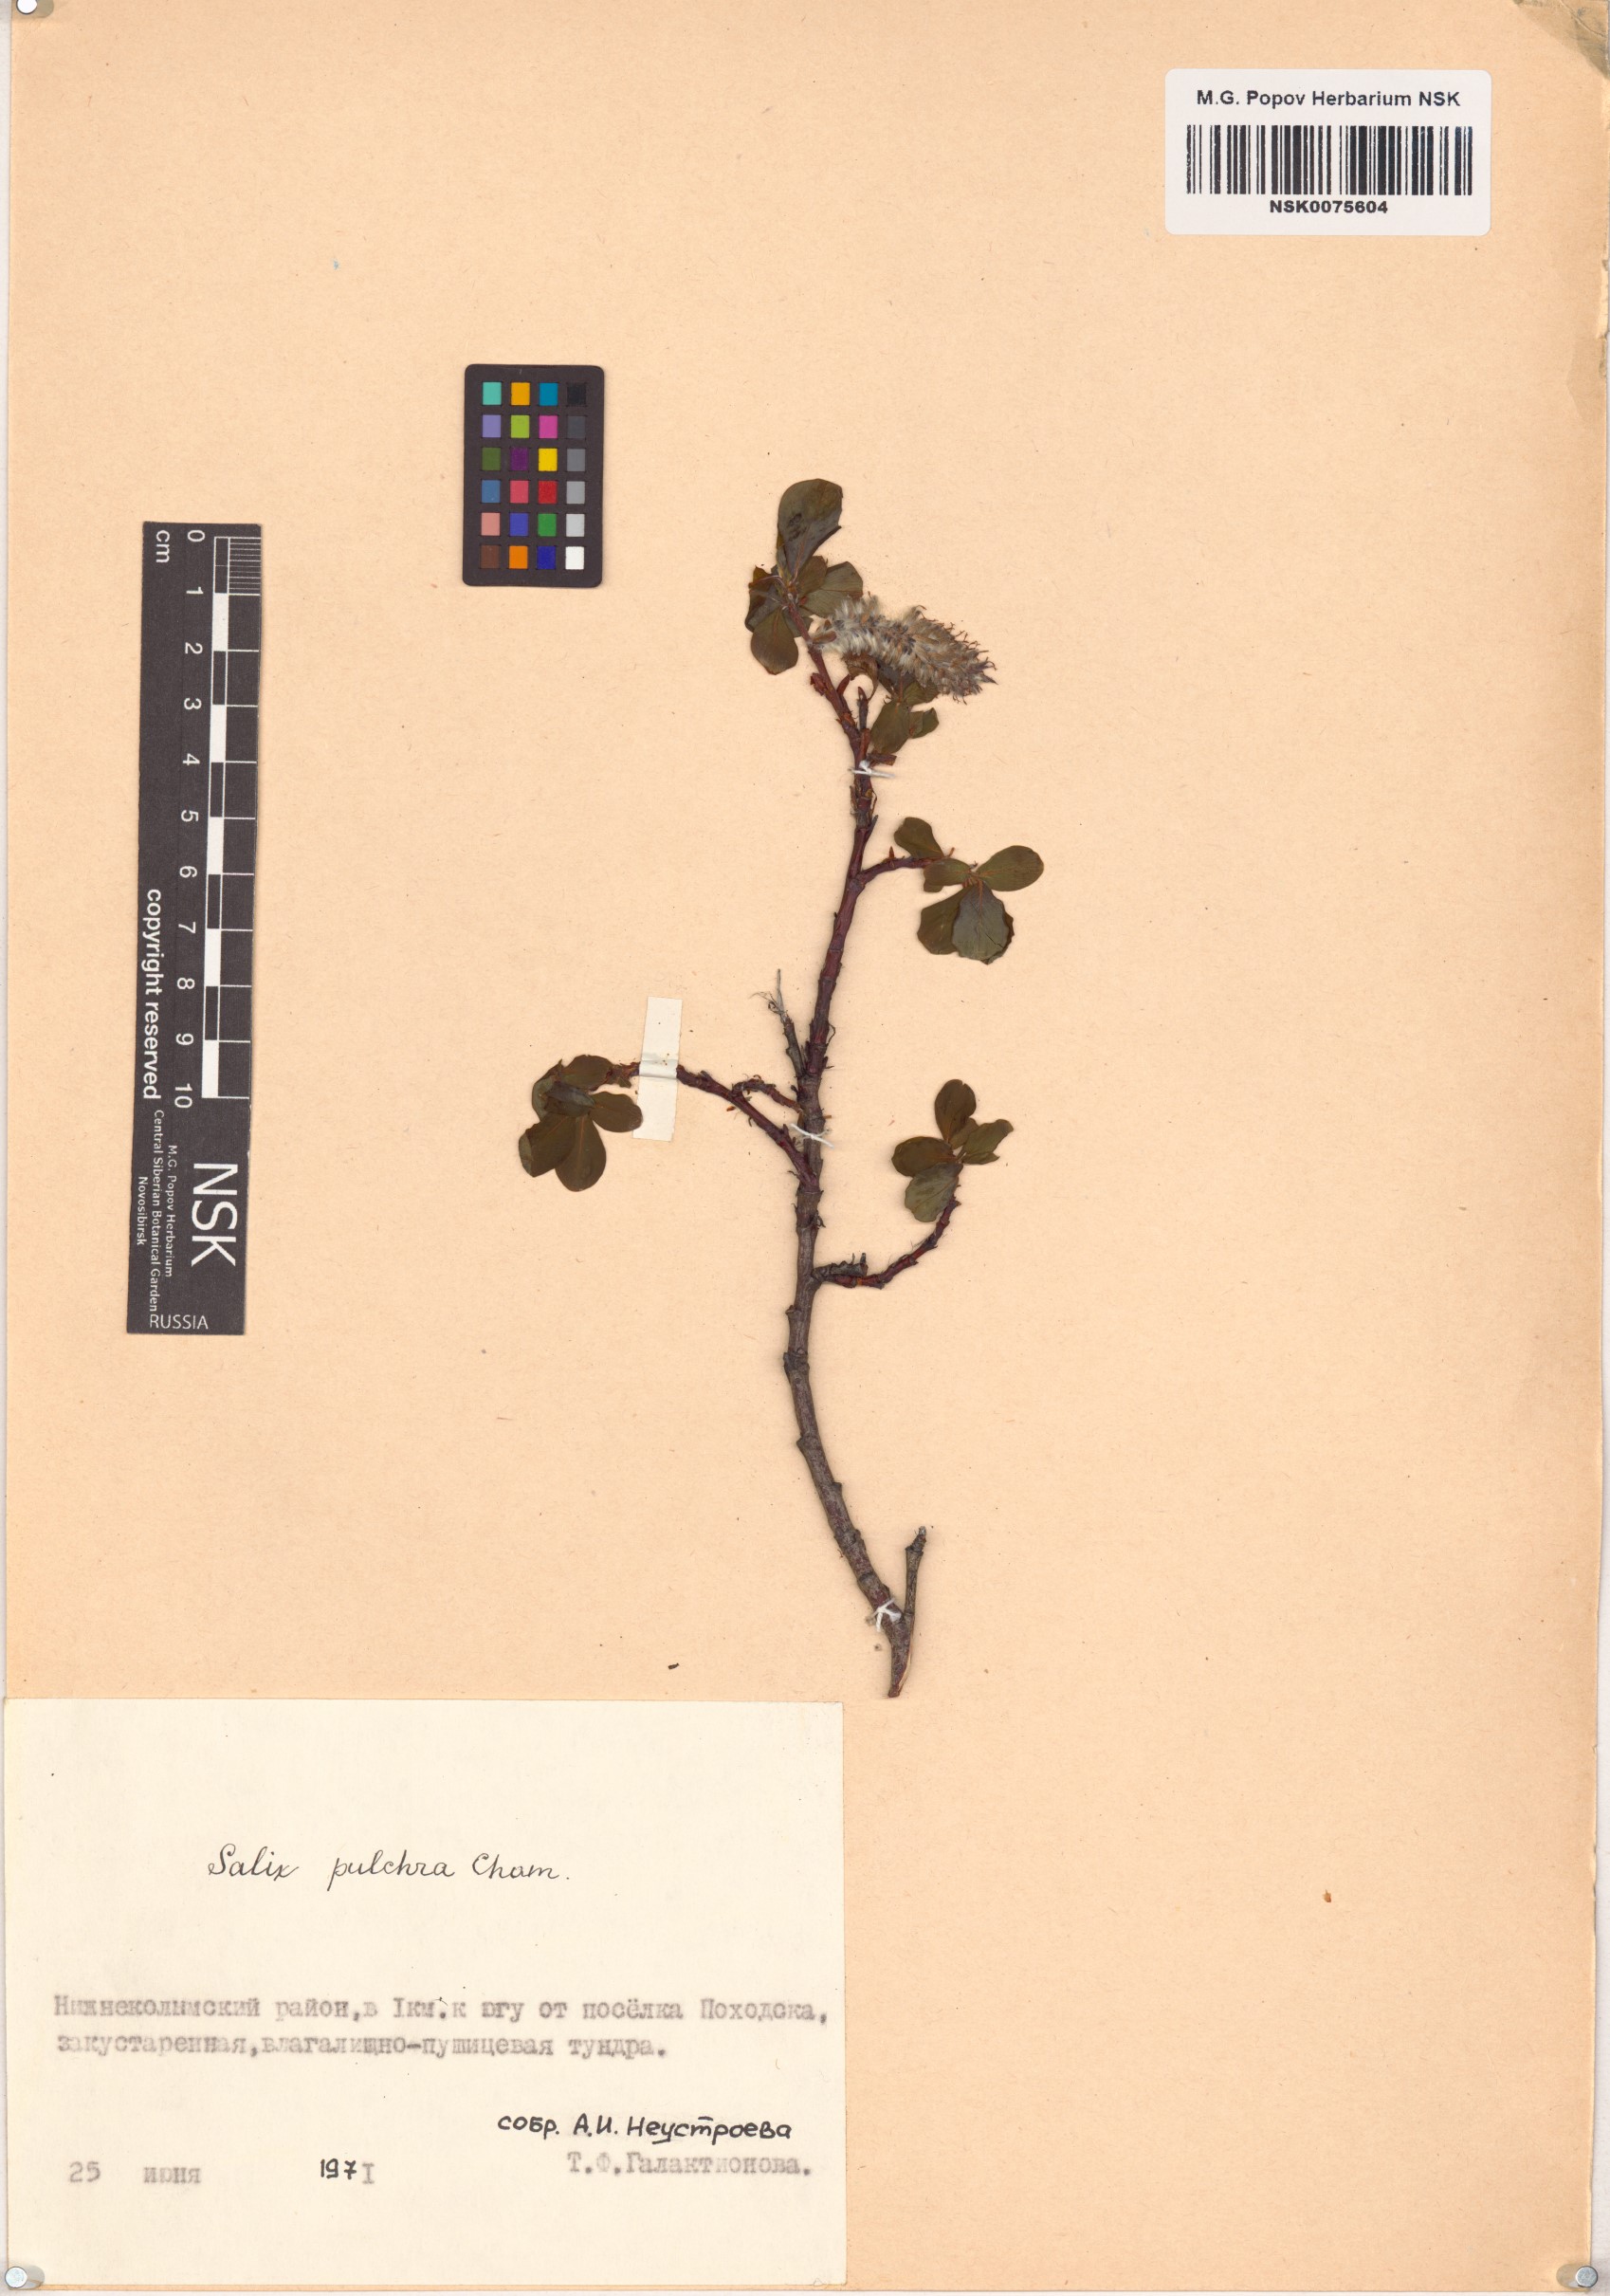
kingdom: Plantae
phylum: Tracheophyta
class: Magnoliopsida
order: Malpighiales
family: Salicaceae
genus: Salix
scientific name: Salix pulchra
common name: Diamond-leaved willow
